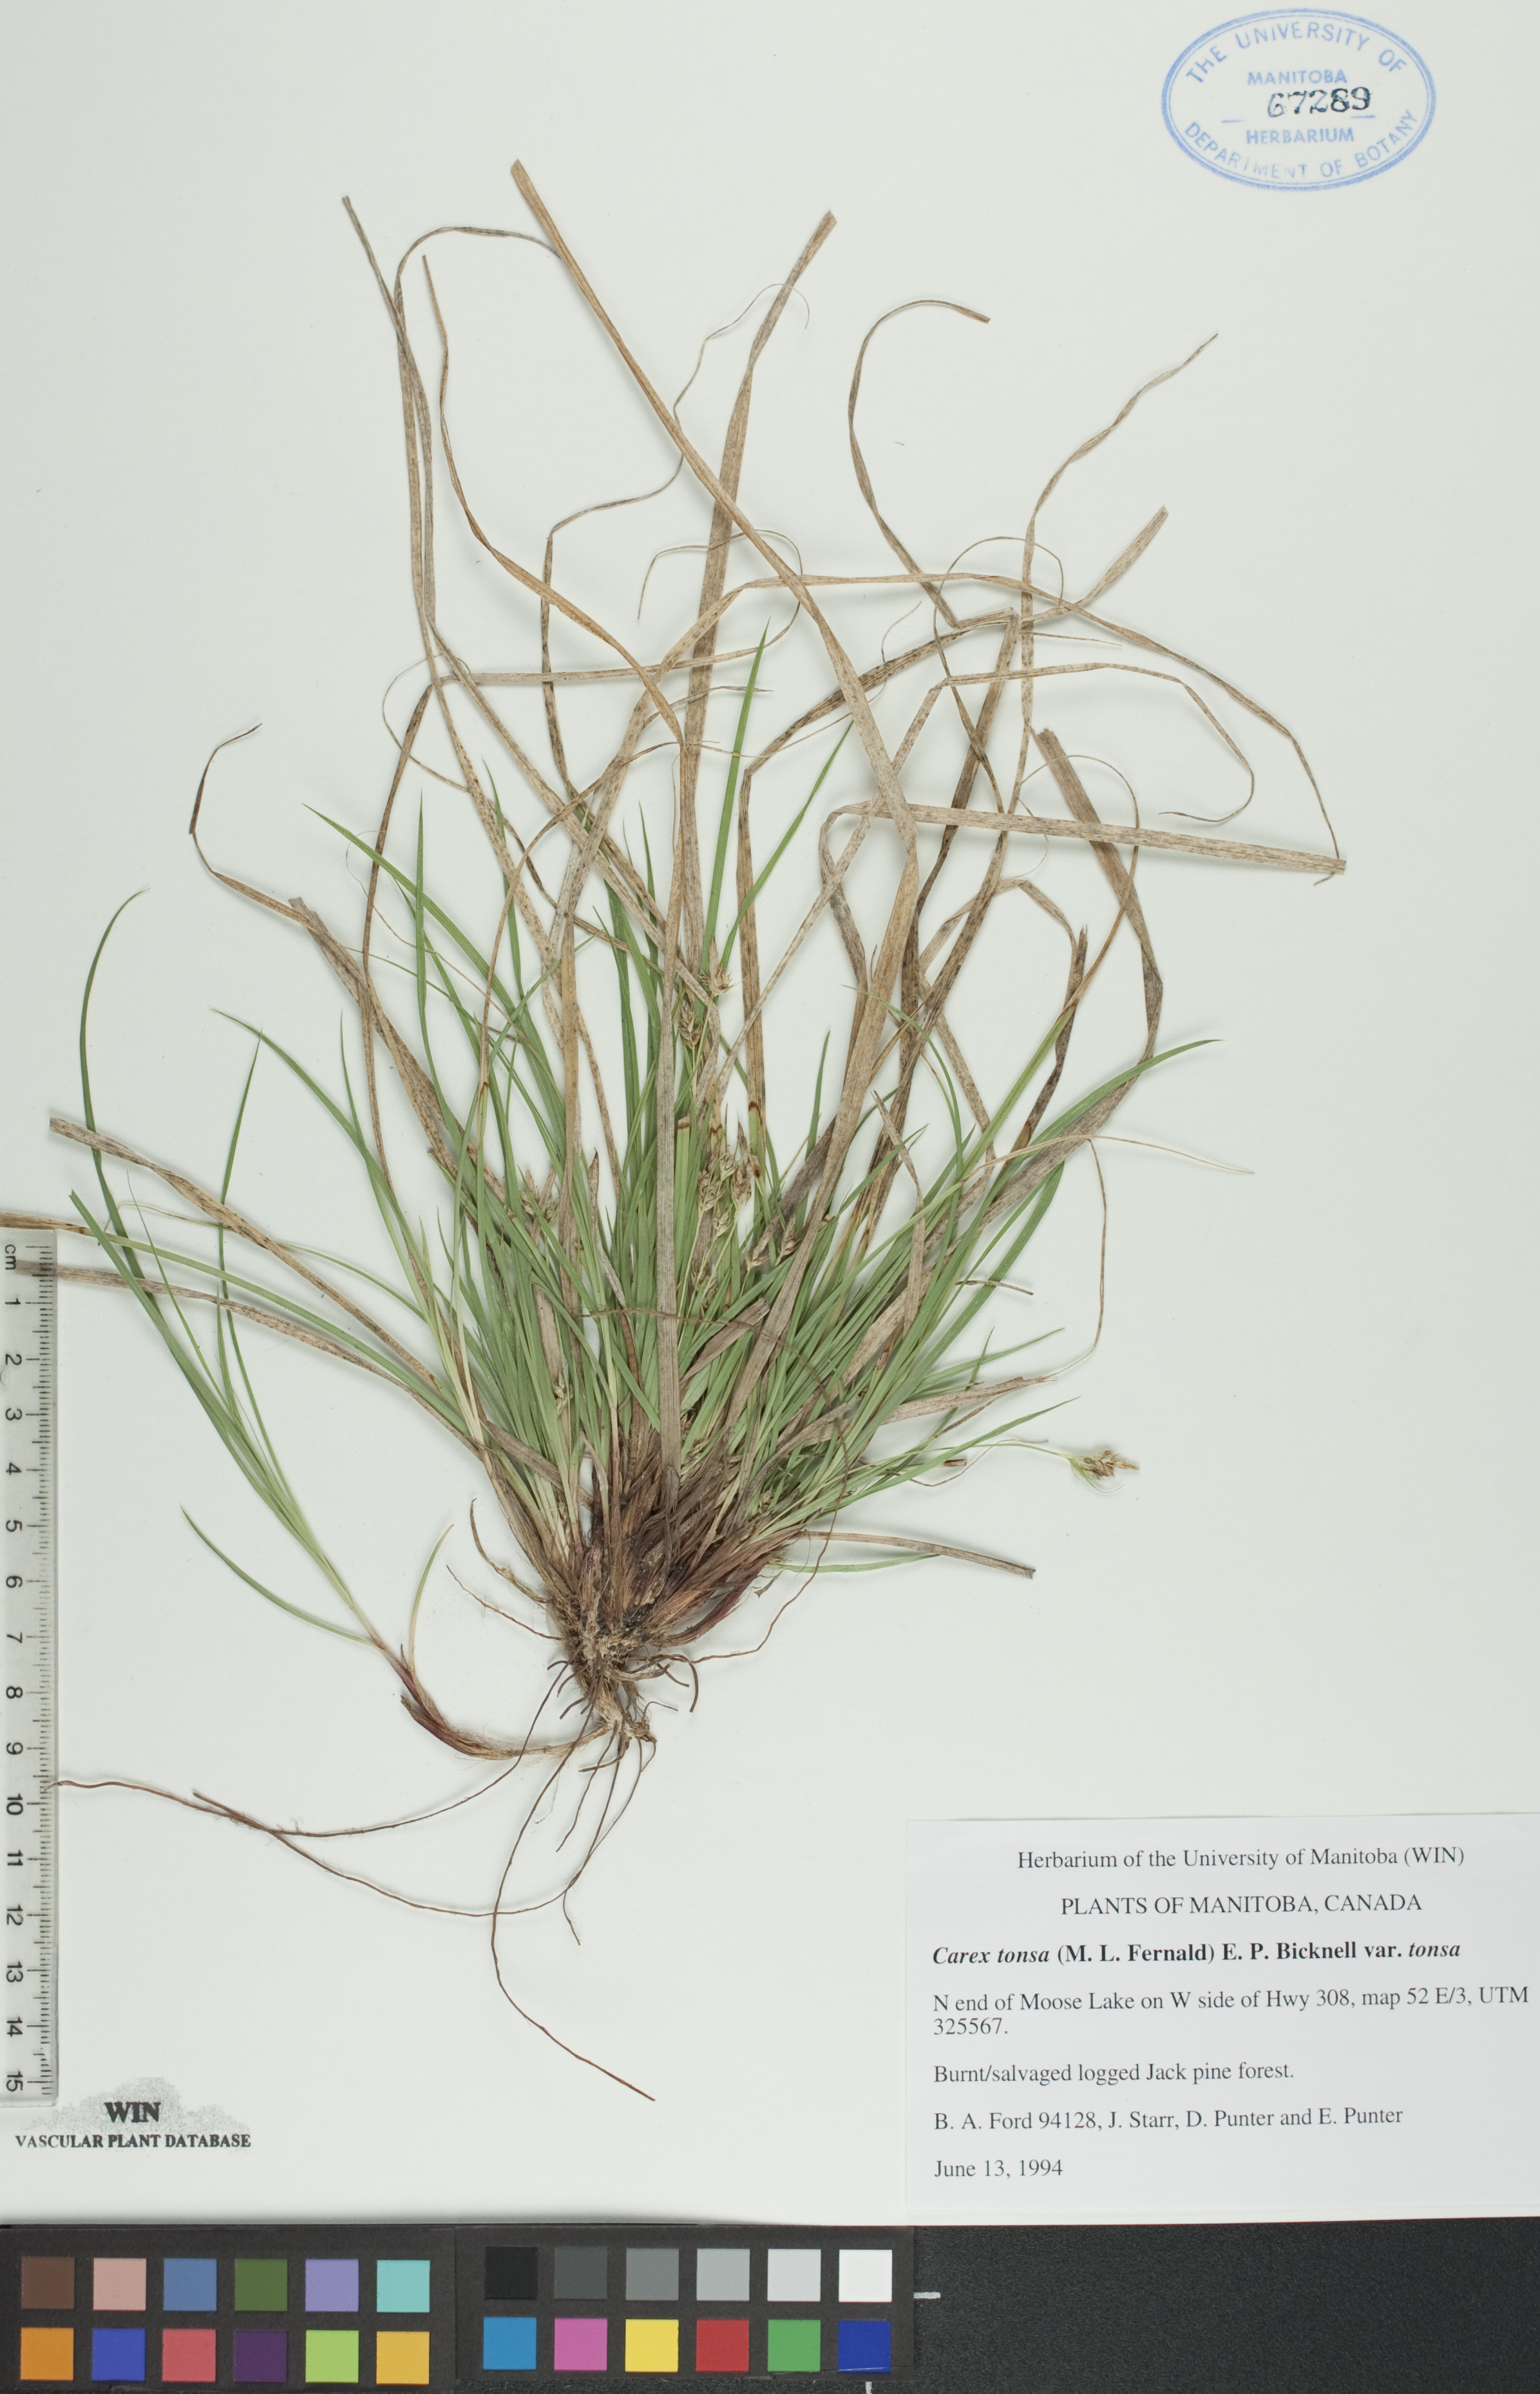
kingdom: Plantae
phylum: Tracheophyta
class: Liliopsida
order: Poales
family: Cyperaceae
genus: Carex
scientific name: Carex tonsa
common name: Bald sedge
